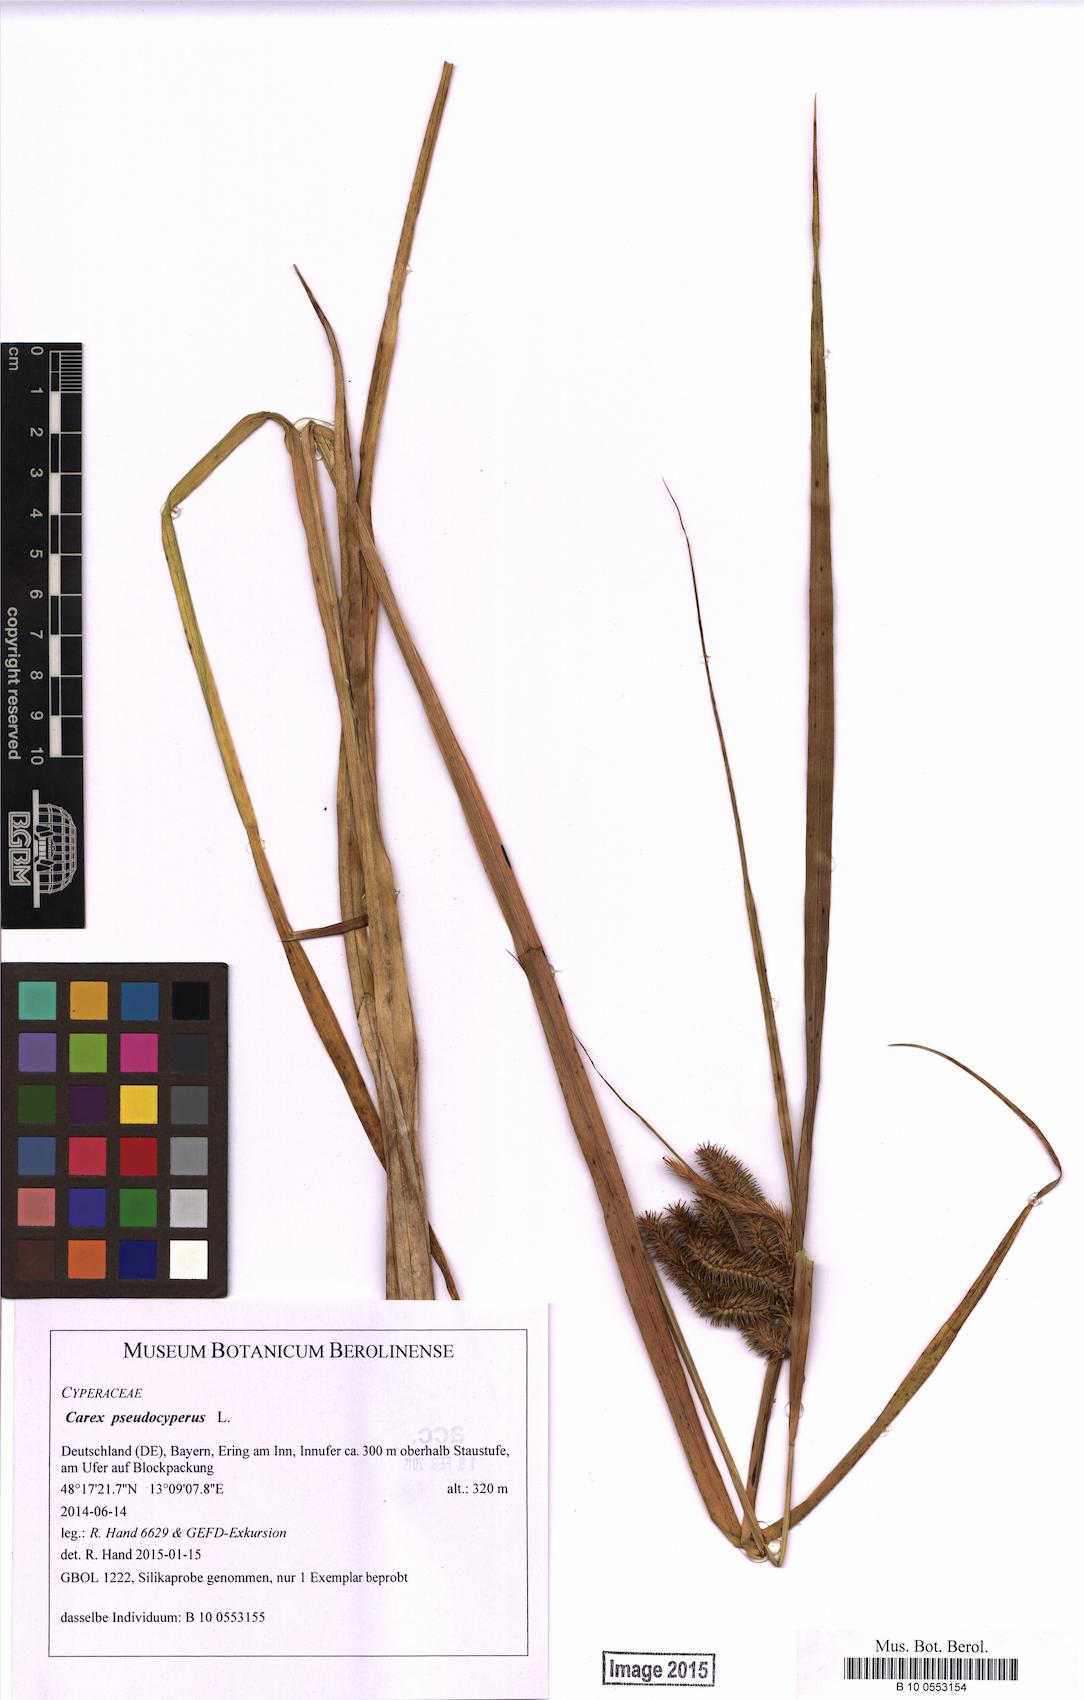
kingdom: Plantae
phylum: Tracheophyta
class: Liliopsida
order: Poales
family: Cyperaceae
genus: Carex
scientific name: Carex pseudocyperus
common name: Cyperus sedge
